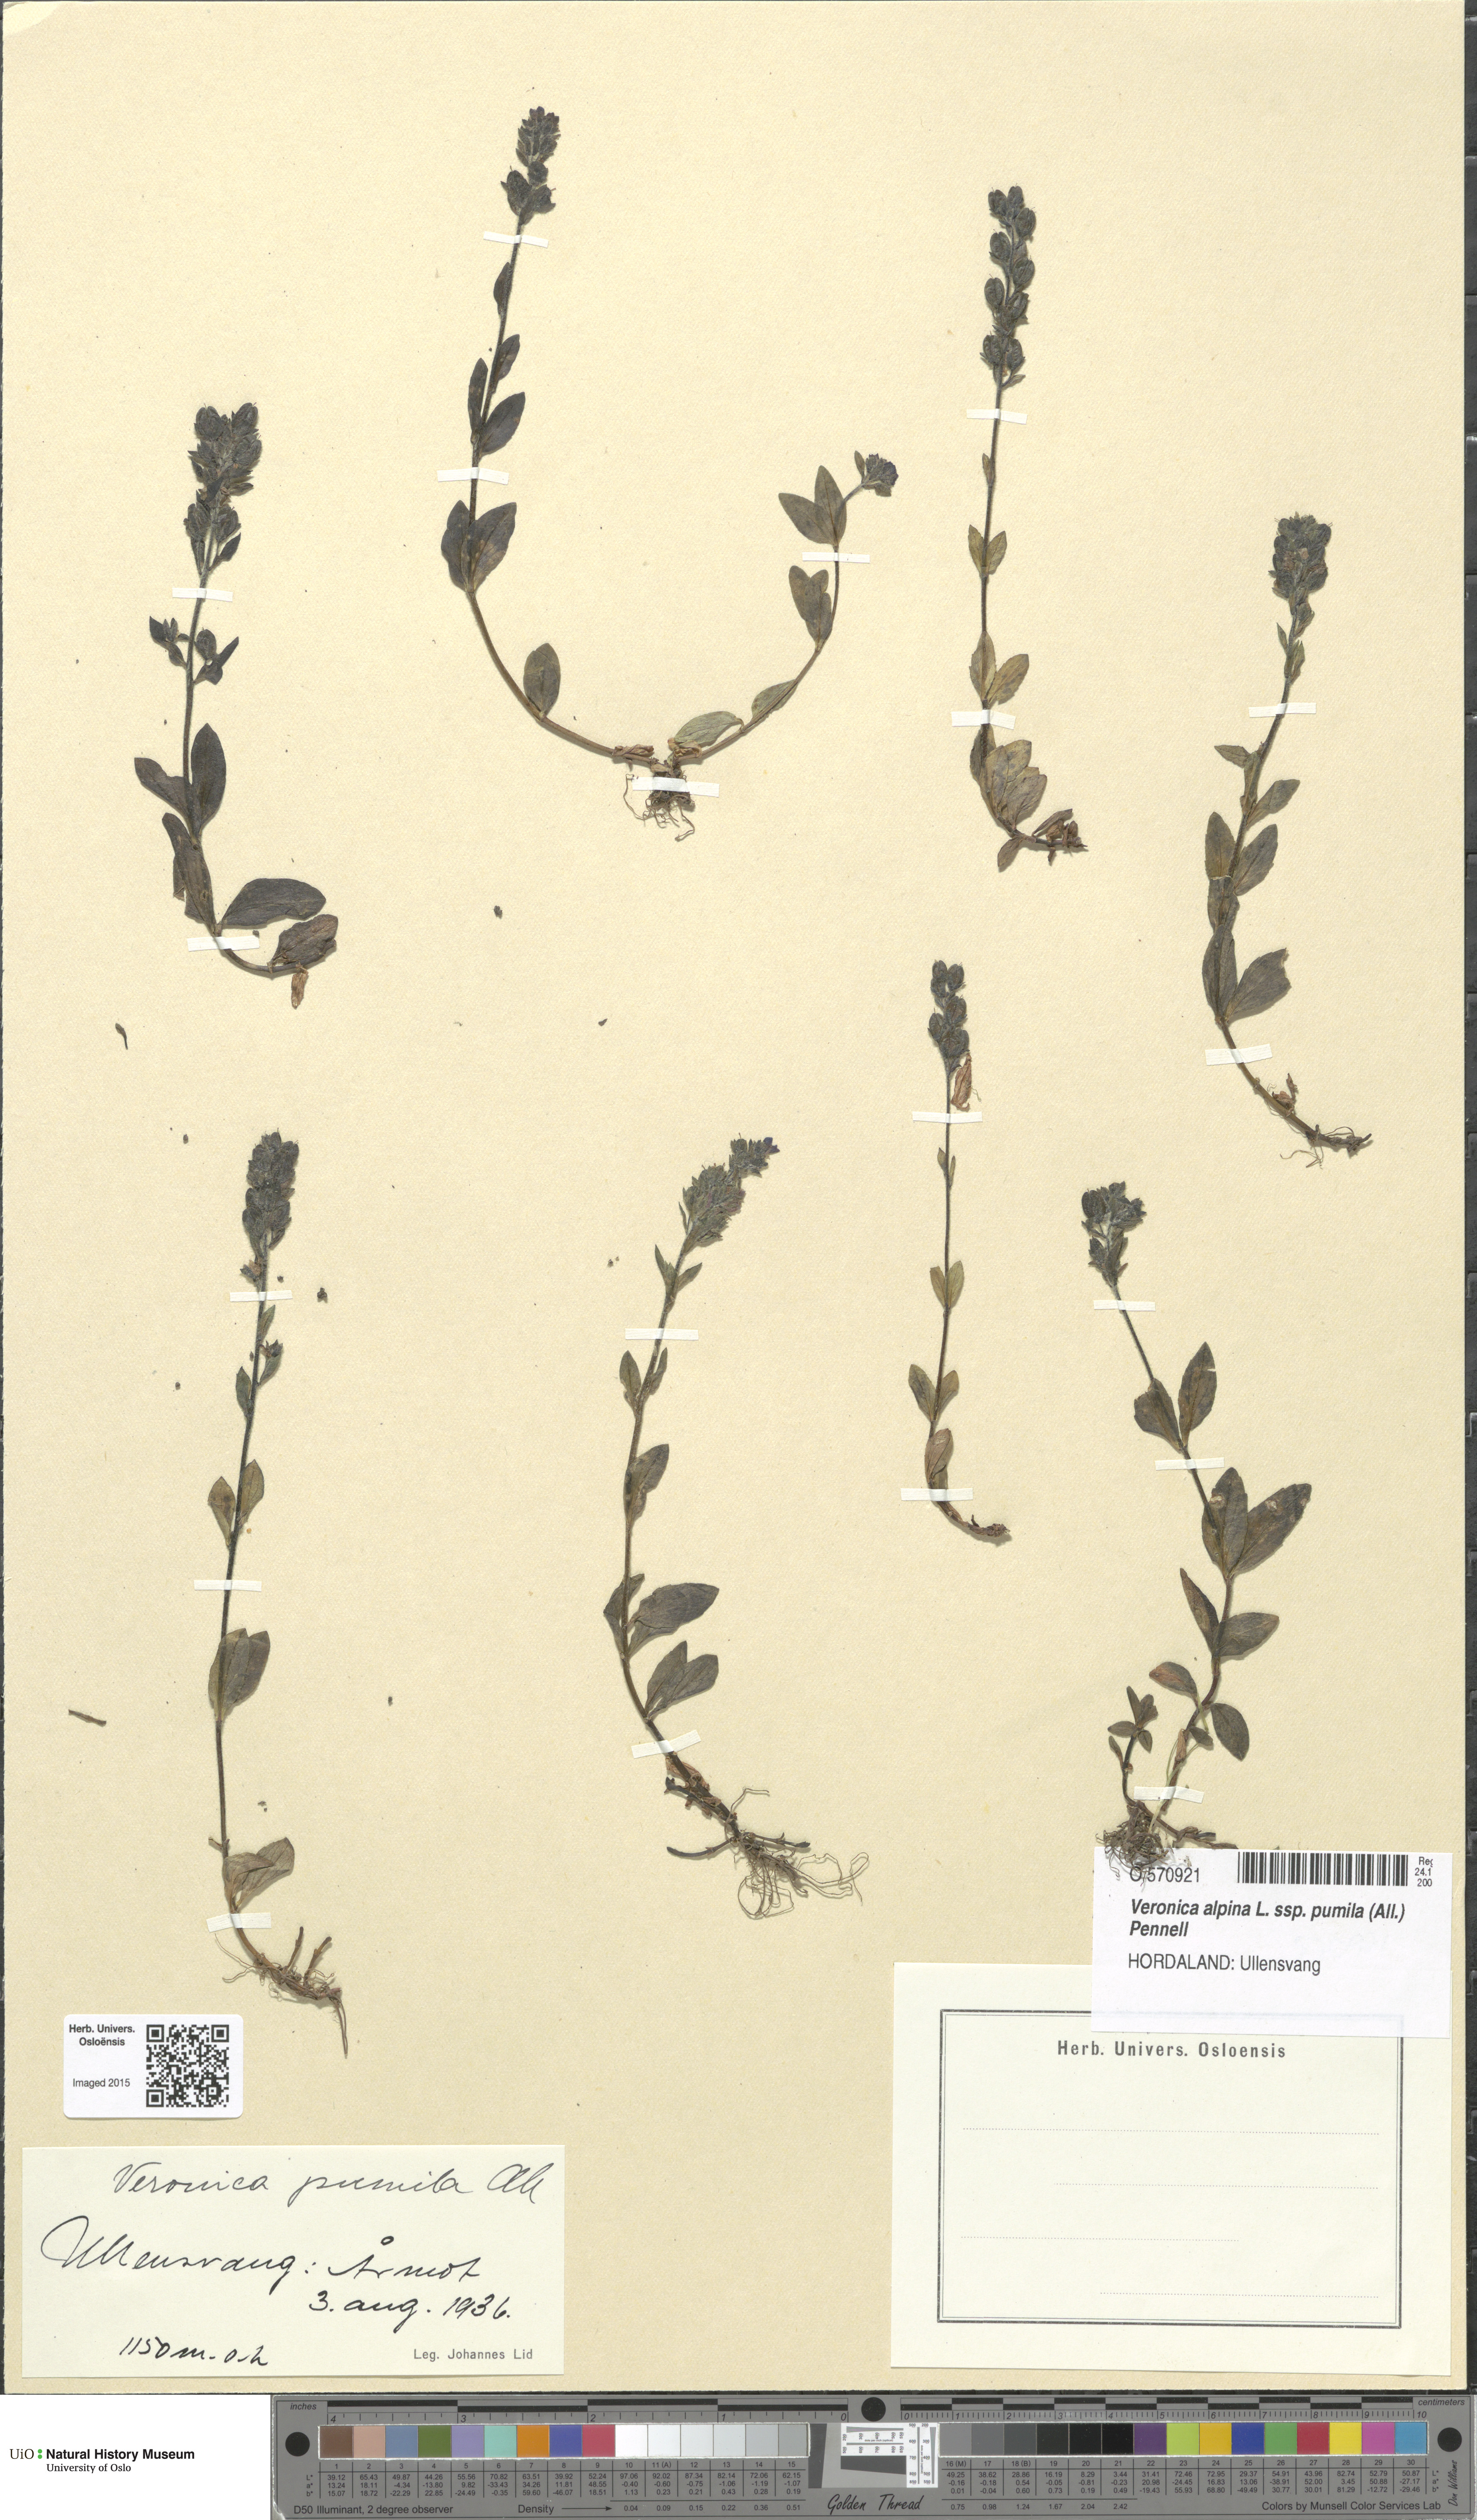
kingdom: Plantae
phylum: Tracheophyta
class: Magnoliopsida
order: Lamiales
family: Plantaginaceae
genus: Veronica
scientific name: Veronica alpina
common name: Alpine speedwell
